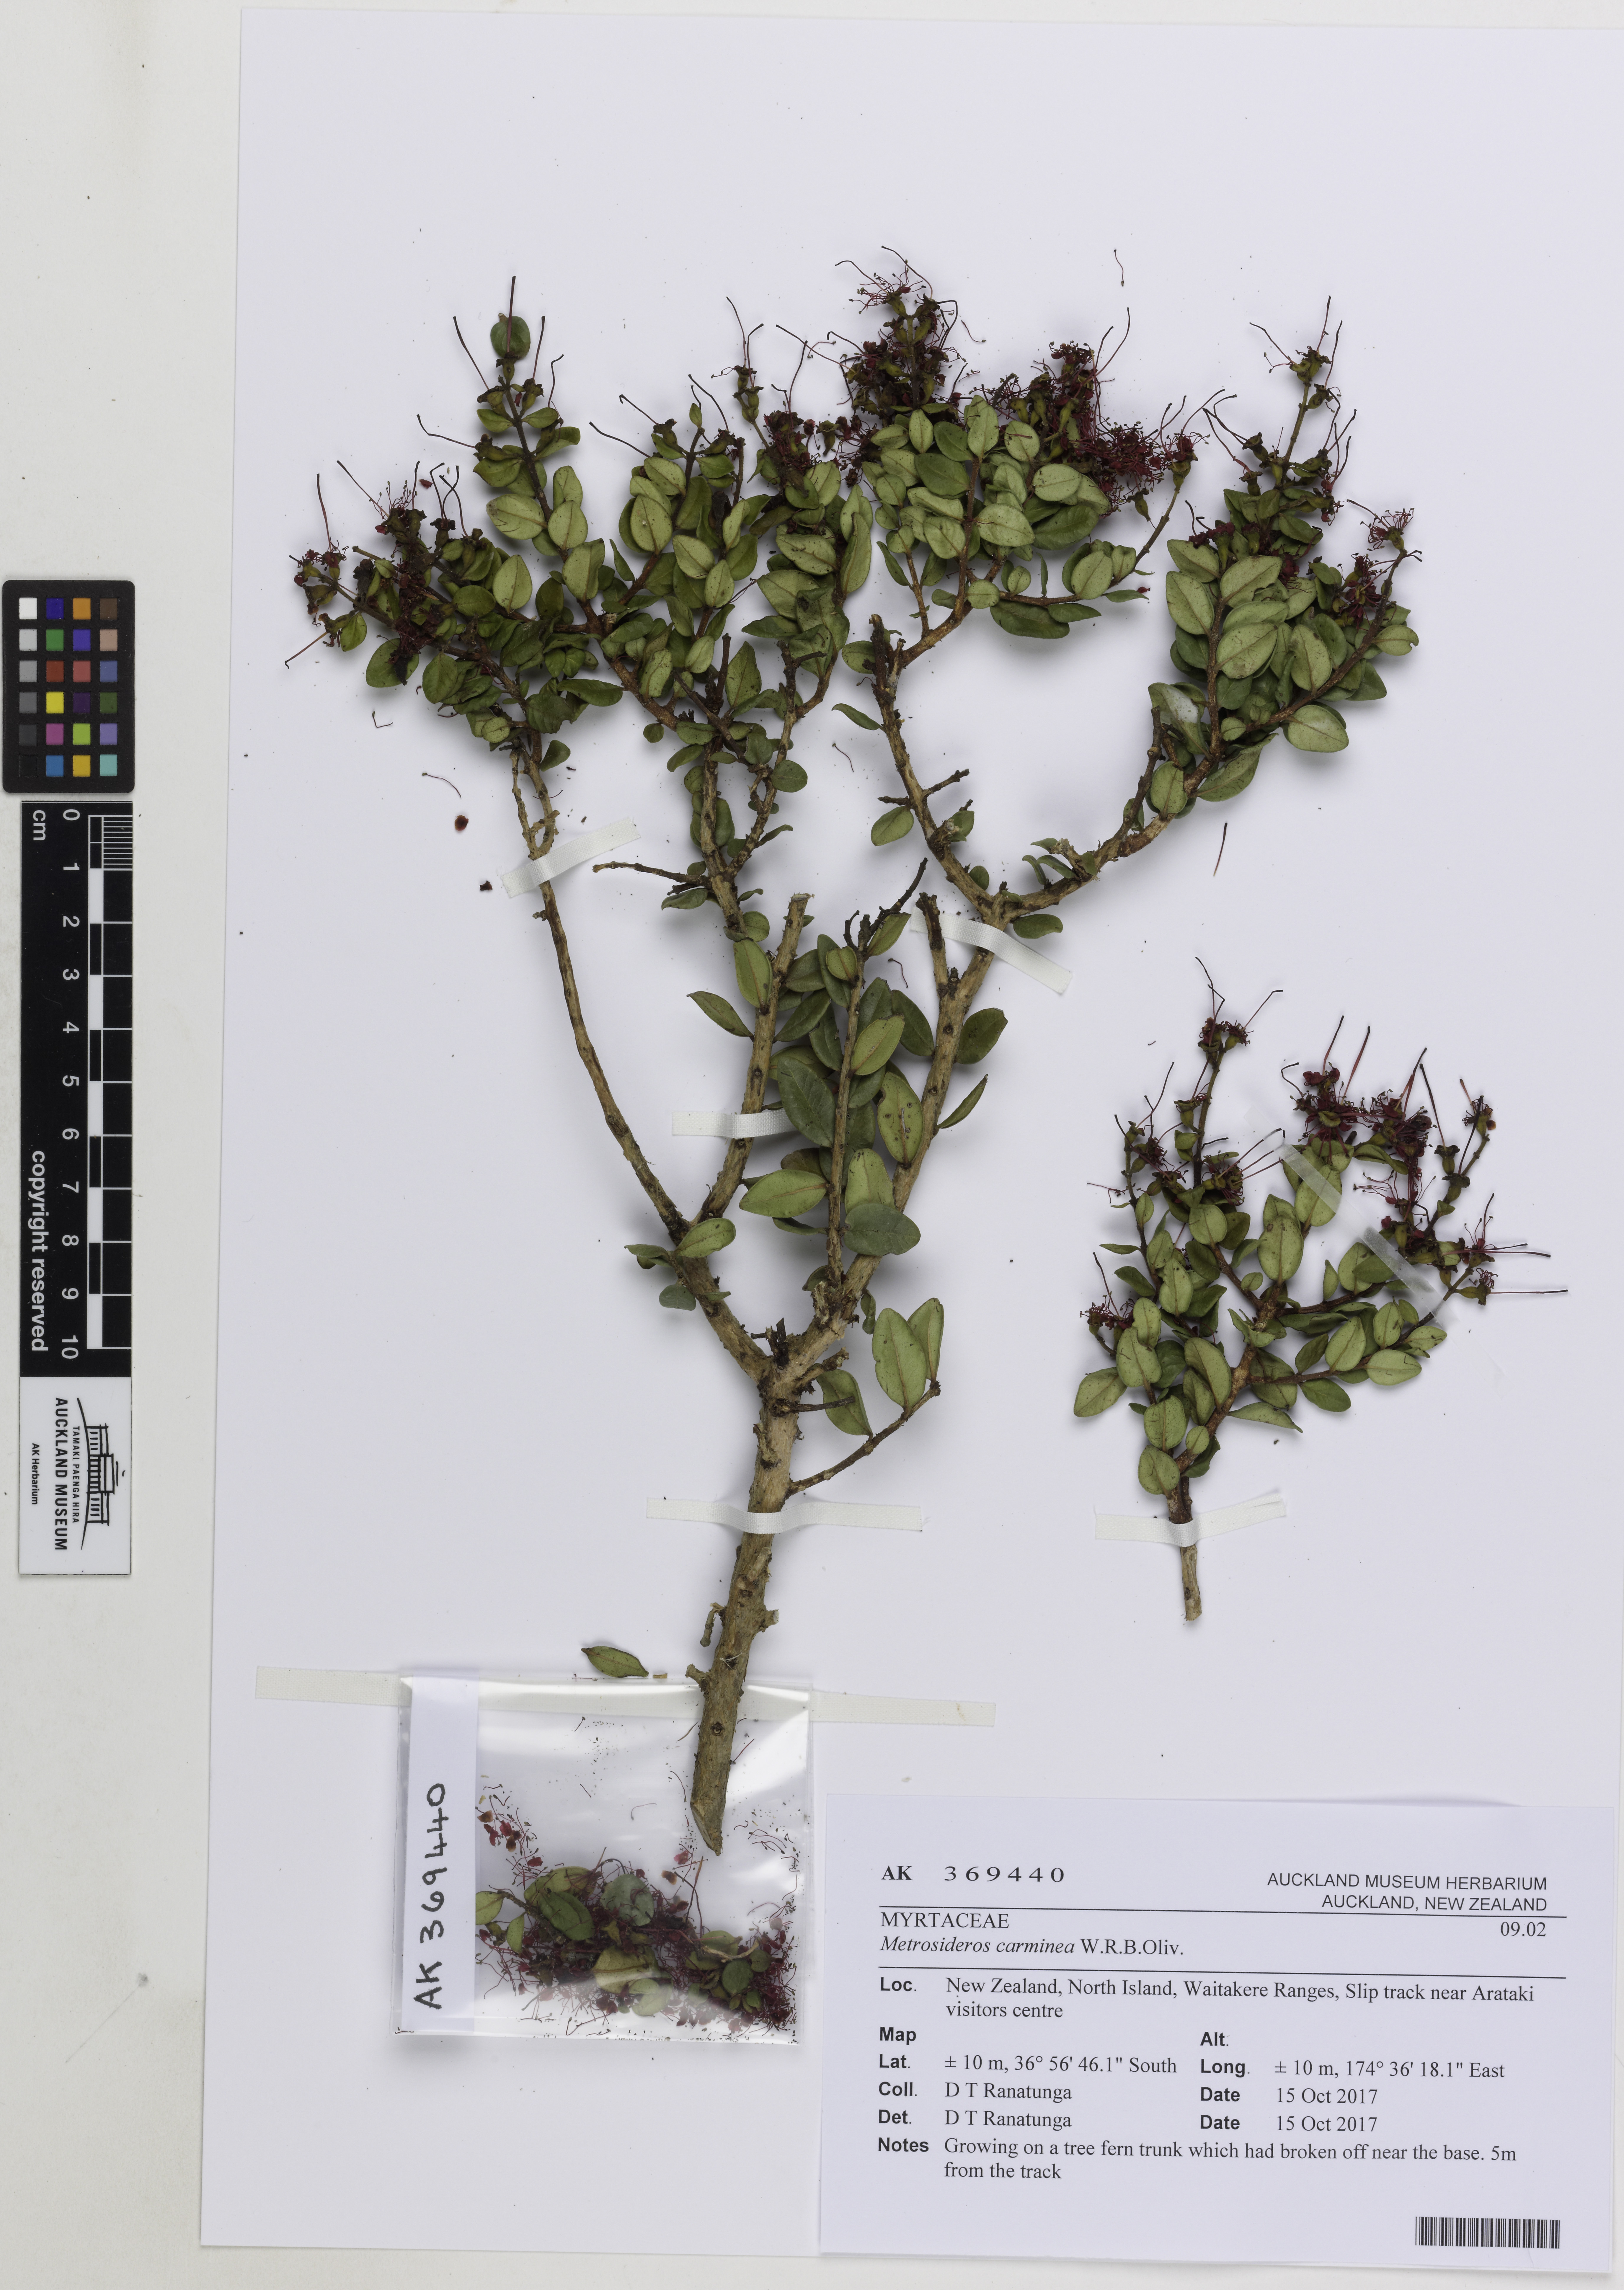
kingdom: Plantae
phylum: Tracheophyta
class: Magnoliopsida
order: Myrtales
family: Myrtaceae
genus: Metrosideros
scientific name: Metrosideros carminea
